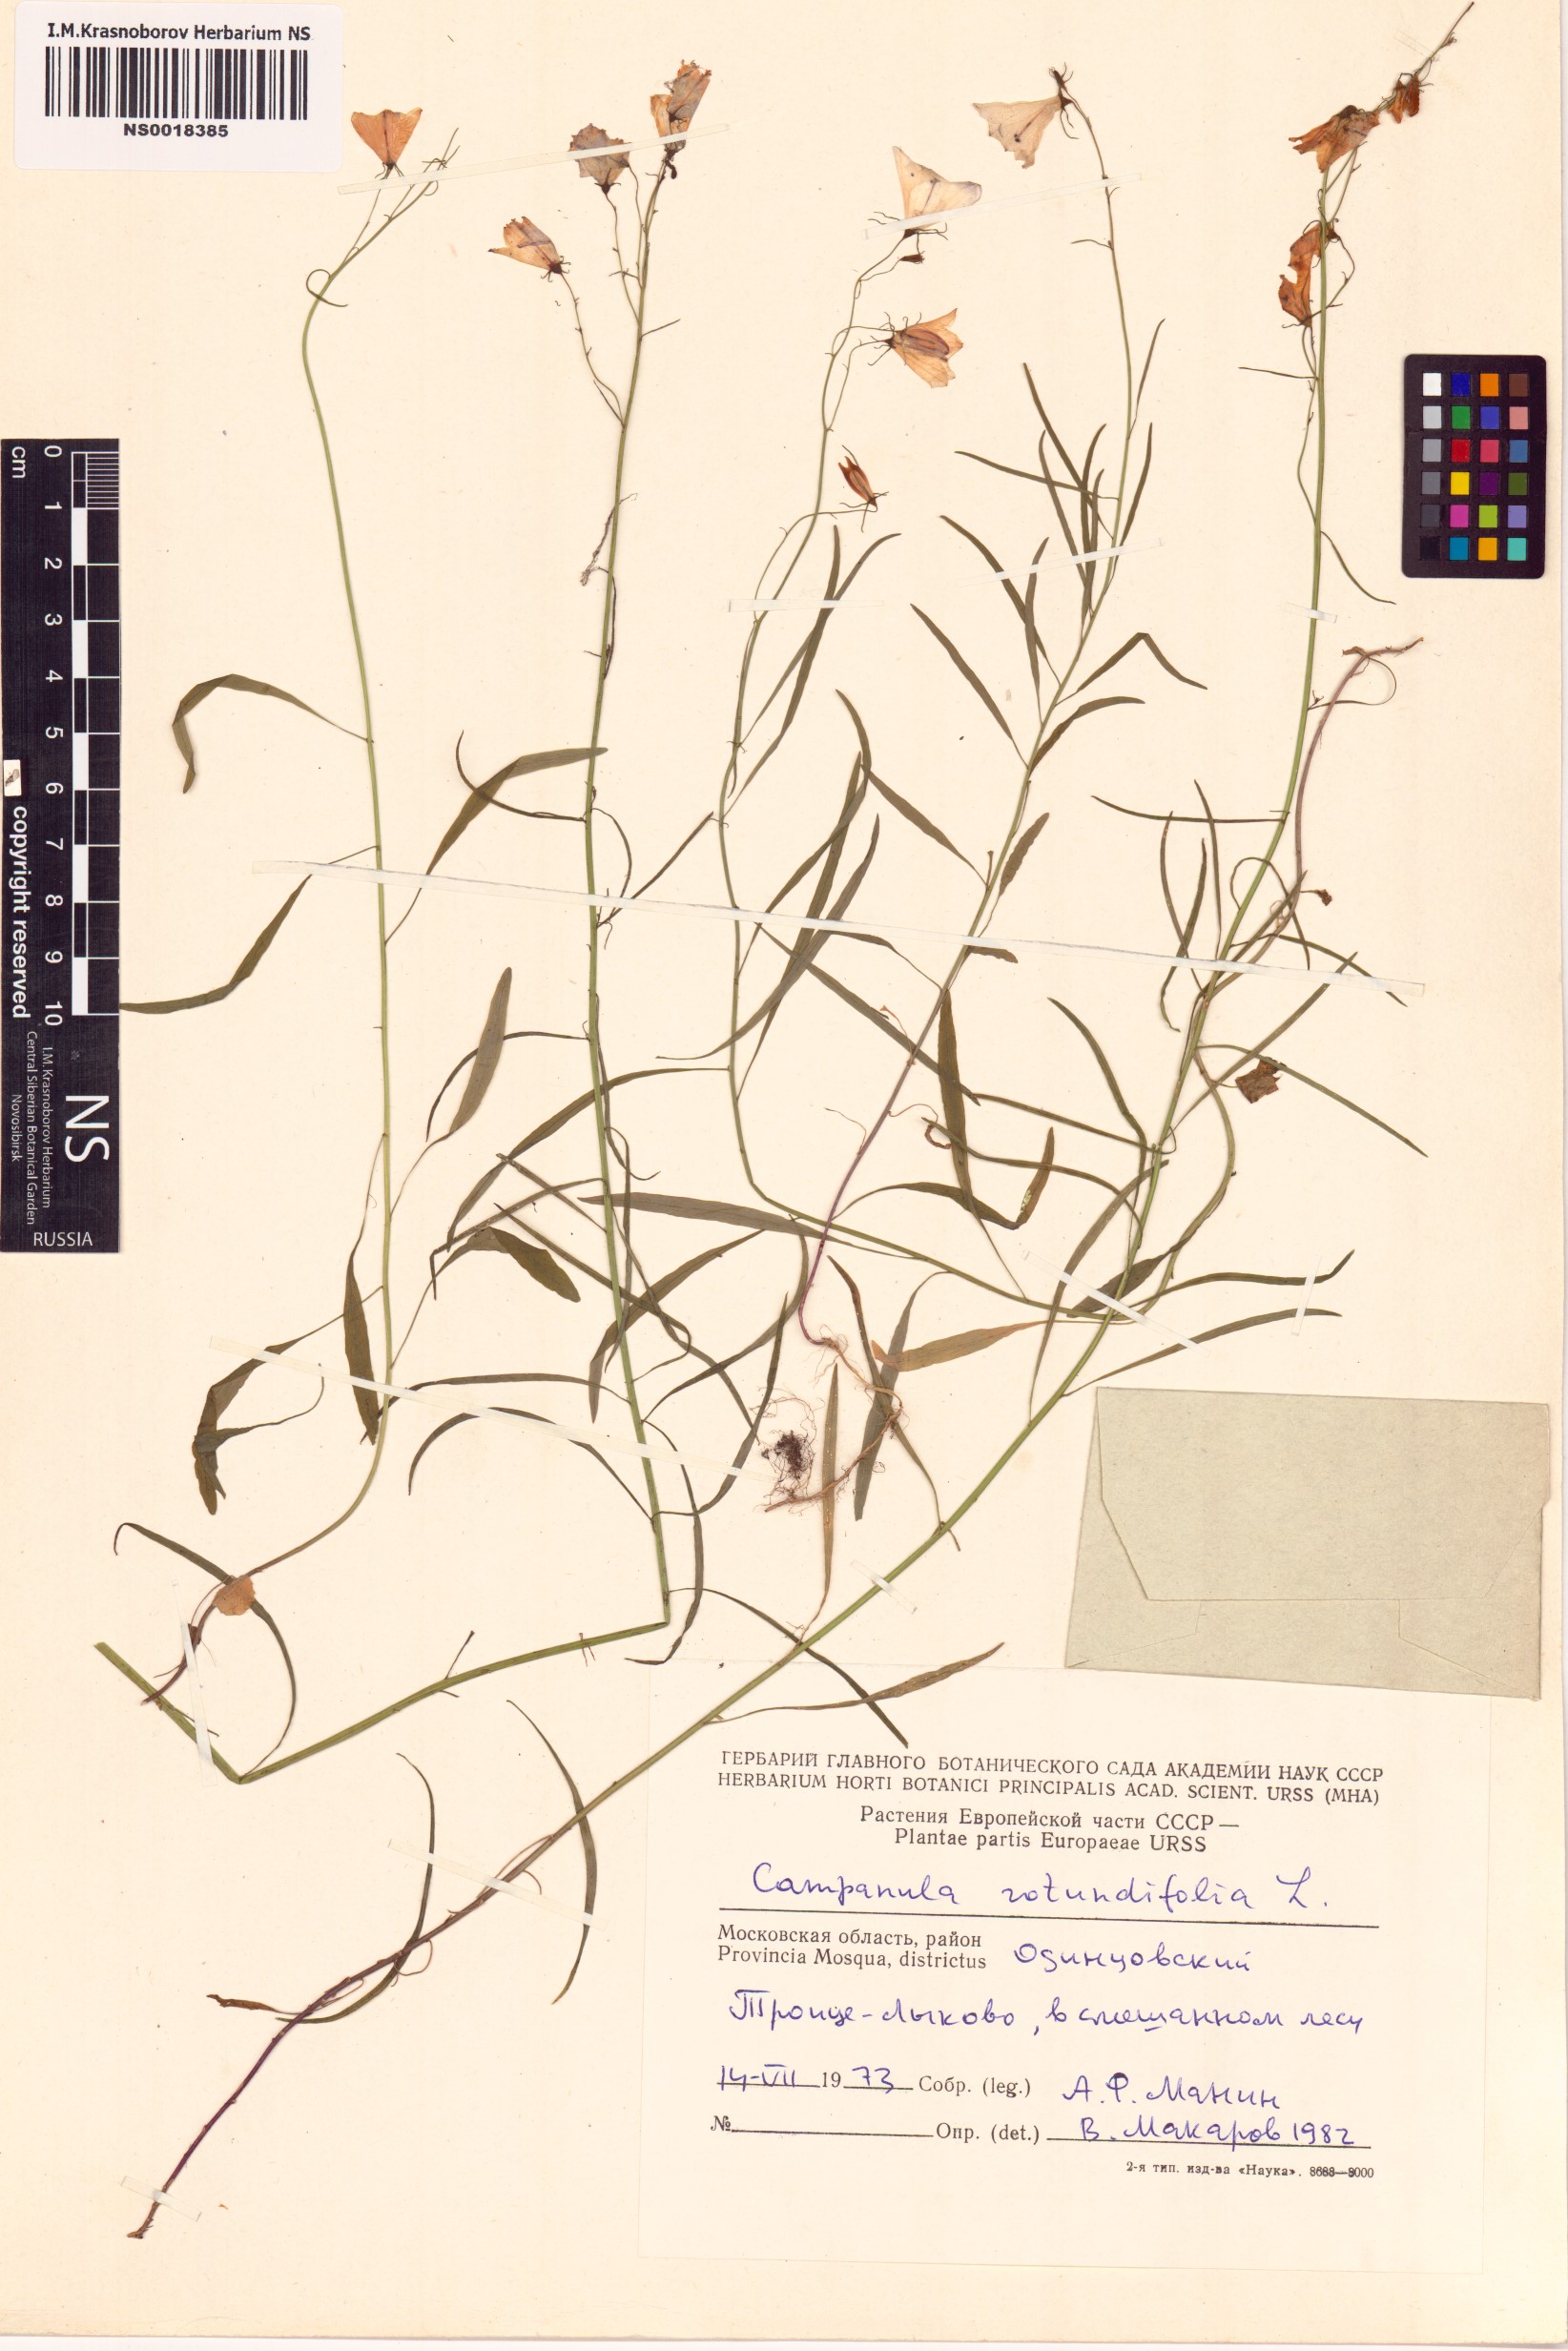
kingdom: Plantae
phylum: Tracheophyta
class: Magnoliopsida
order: Asterales
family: Campanulaceae
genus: Campanula
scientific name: Campanula rotundifolia
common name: Harebell
